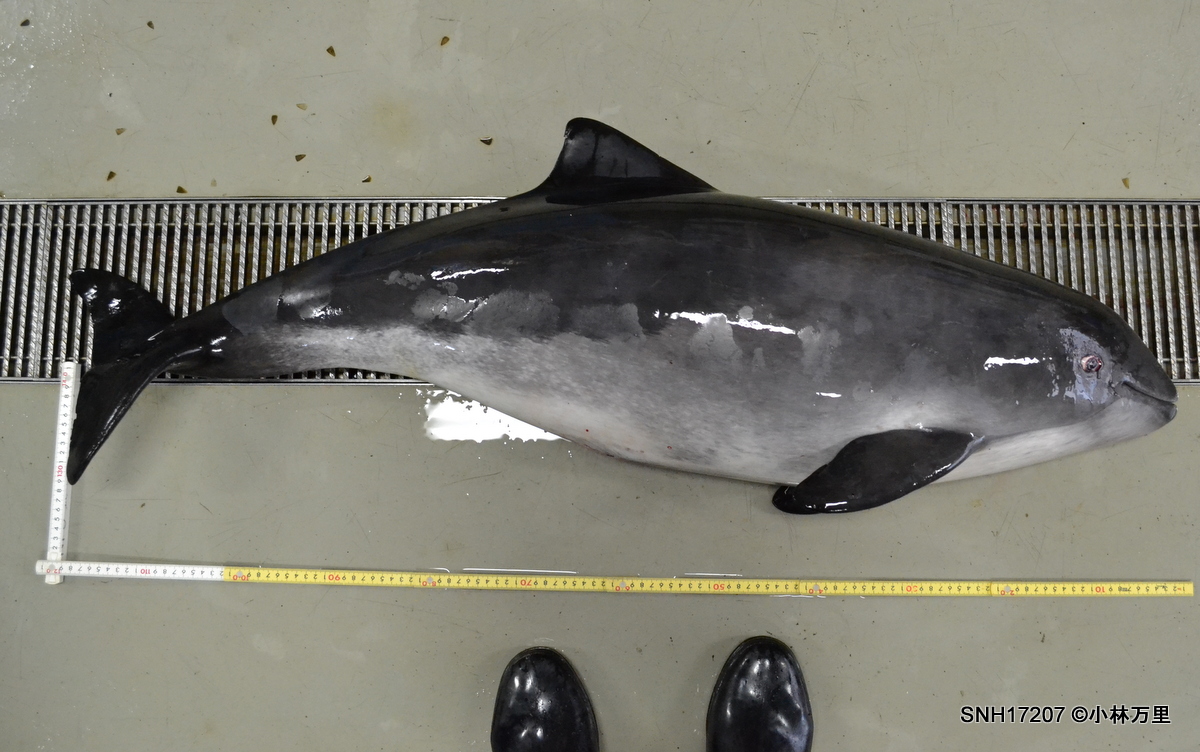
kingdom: Animalia
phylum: Chordata
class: Mammalia
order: Cetacea
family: Phocoenidae
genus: Phocoena
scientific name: Phocoena phocoena
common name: Harbour porpoise
